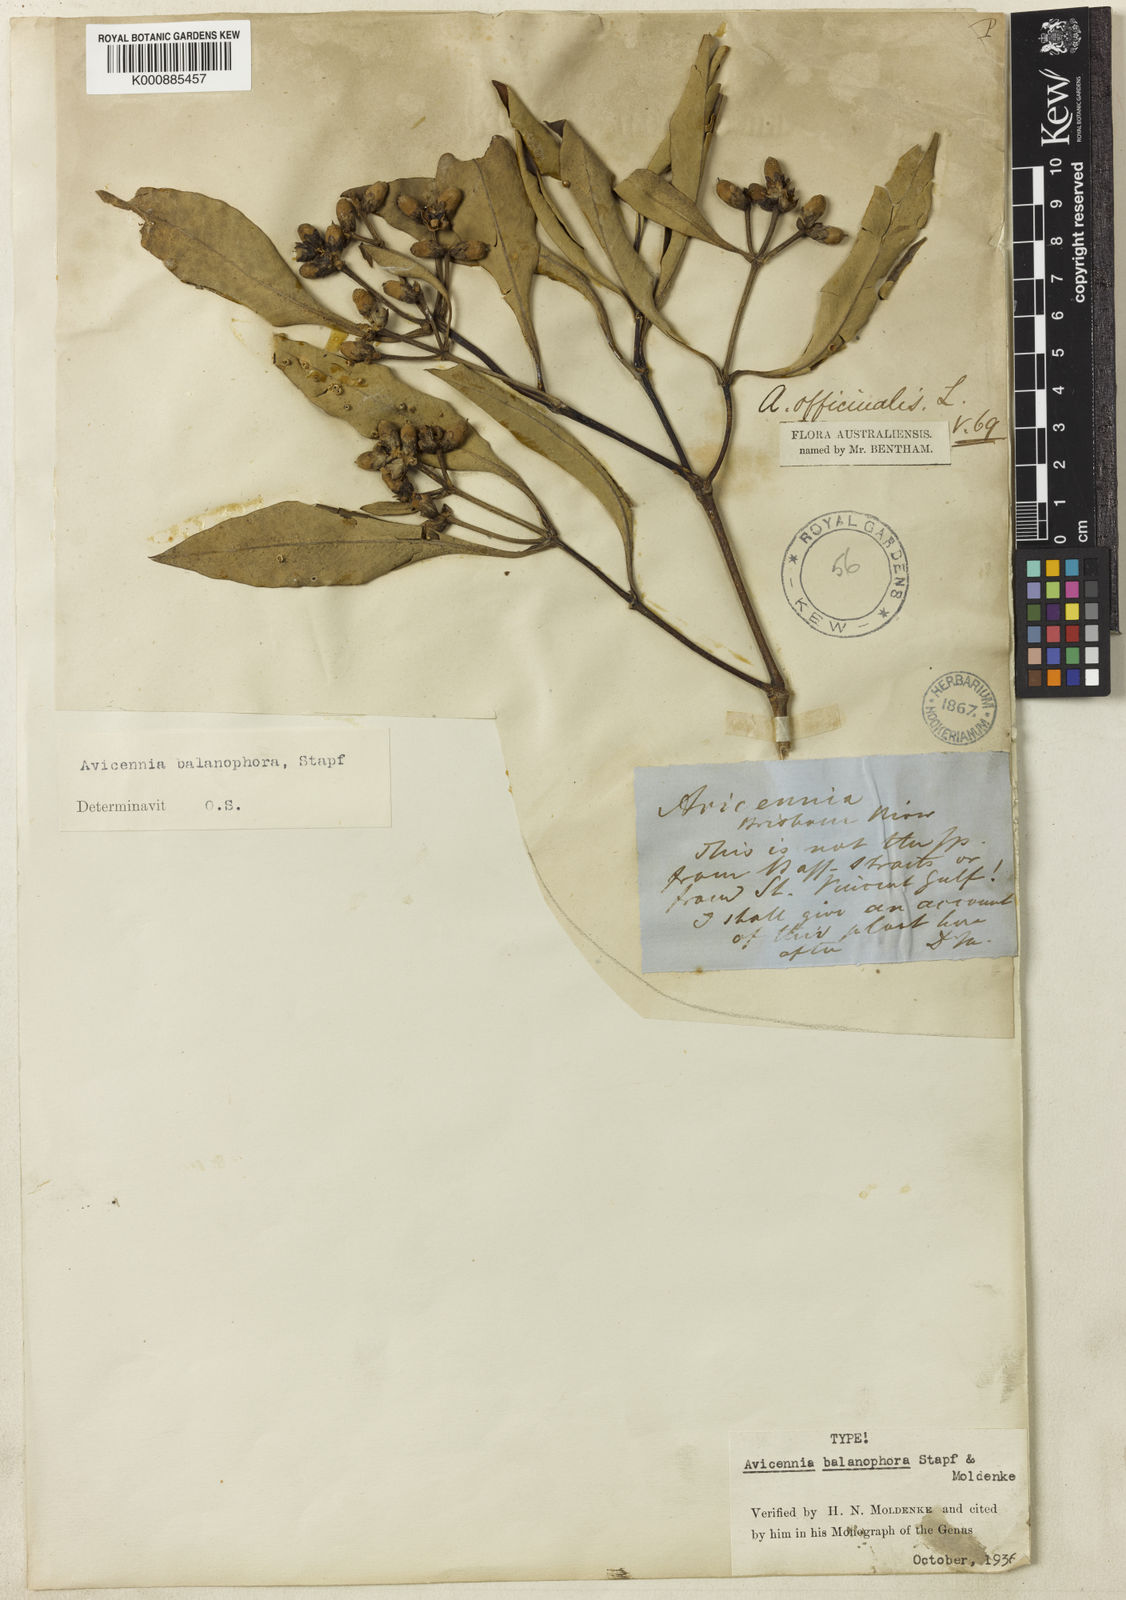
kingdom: Plantae
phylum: Tracheophyta
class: Magnoliopsida
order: Lamiales
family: Acanthaceae
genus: Avicennia
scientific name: Avicennia balanophora
